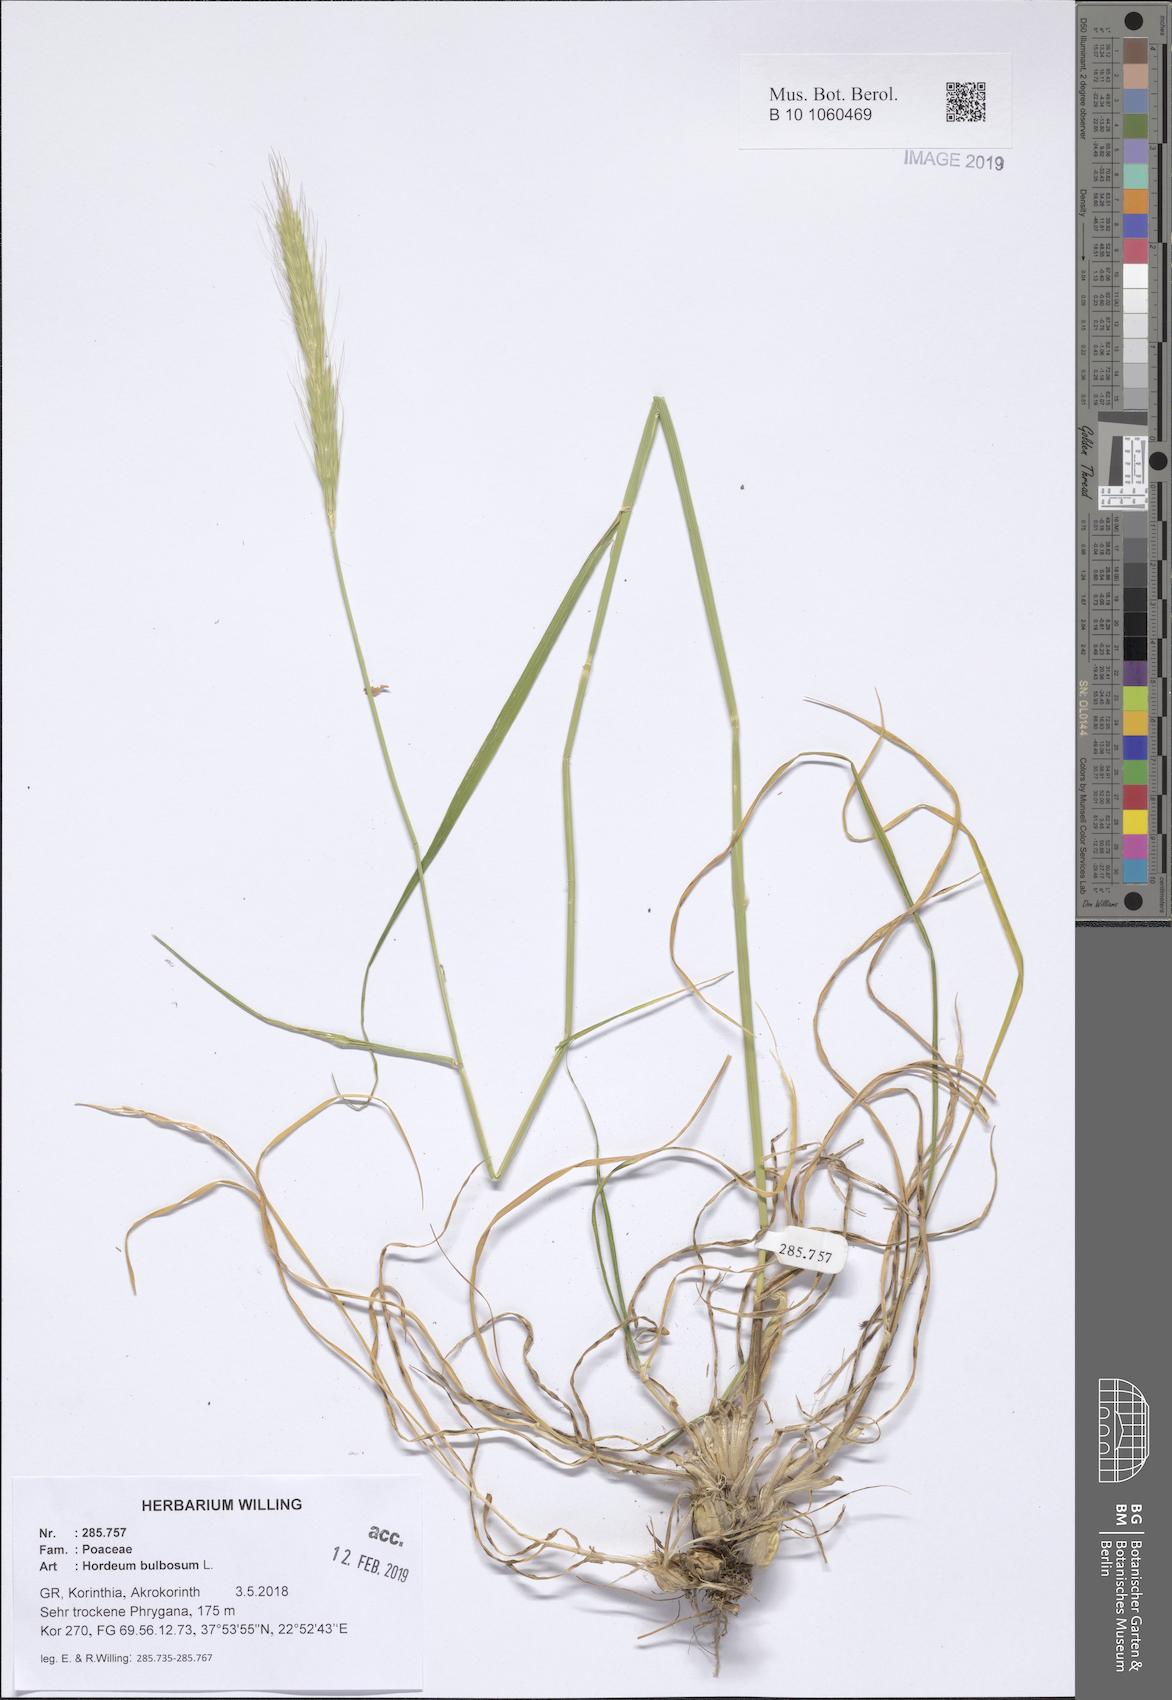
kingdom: Plantae
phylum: Tracheophyta
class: Liliopsida
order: Poales
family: Poaceae
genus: Hordeum
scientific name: Hordeum bulbosum
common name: Bulbous barley
